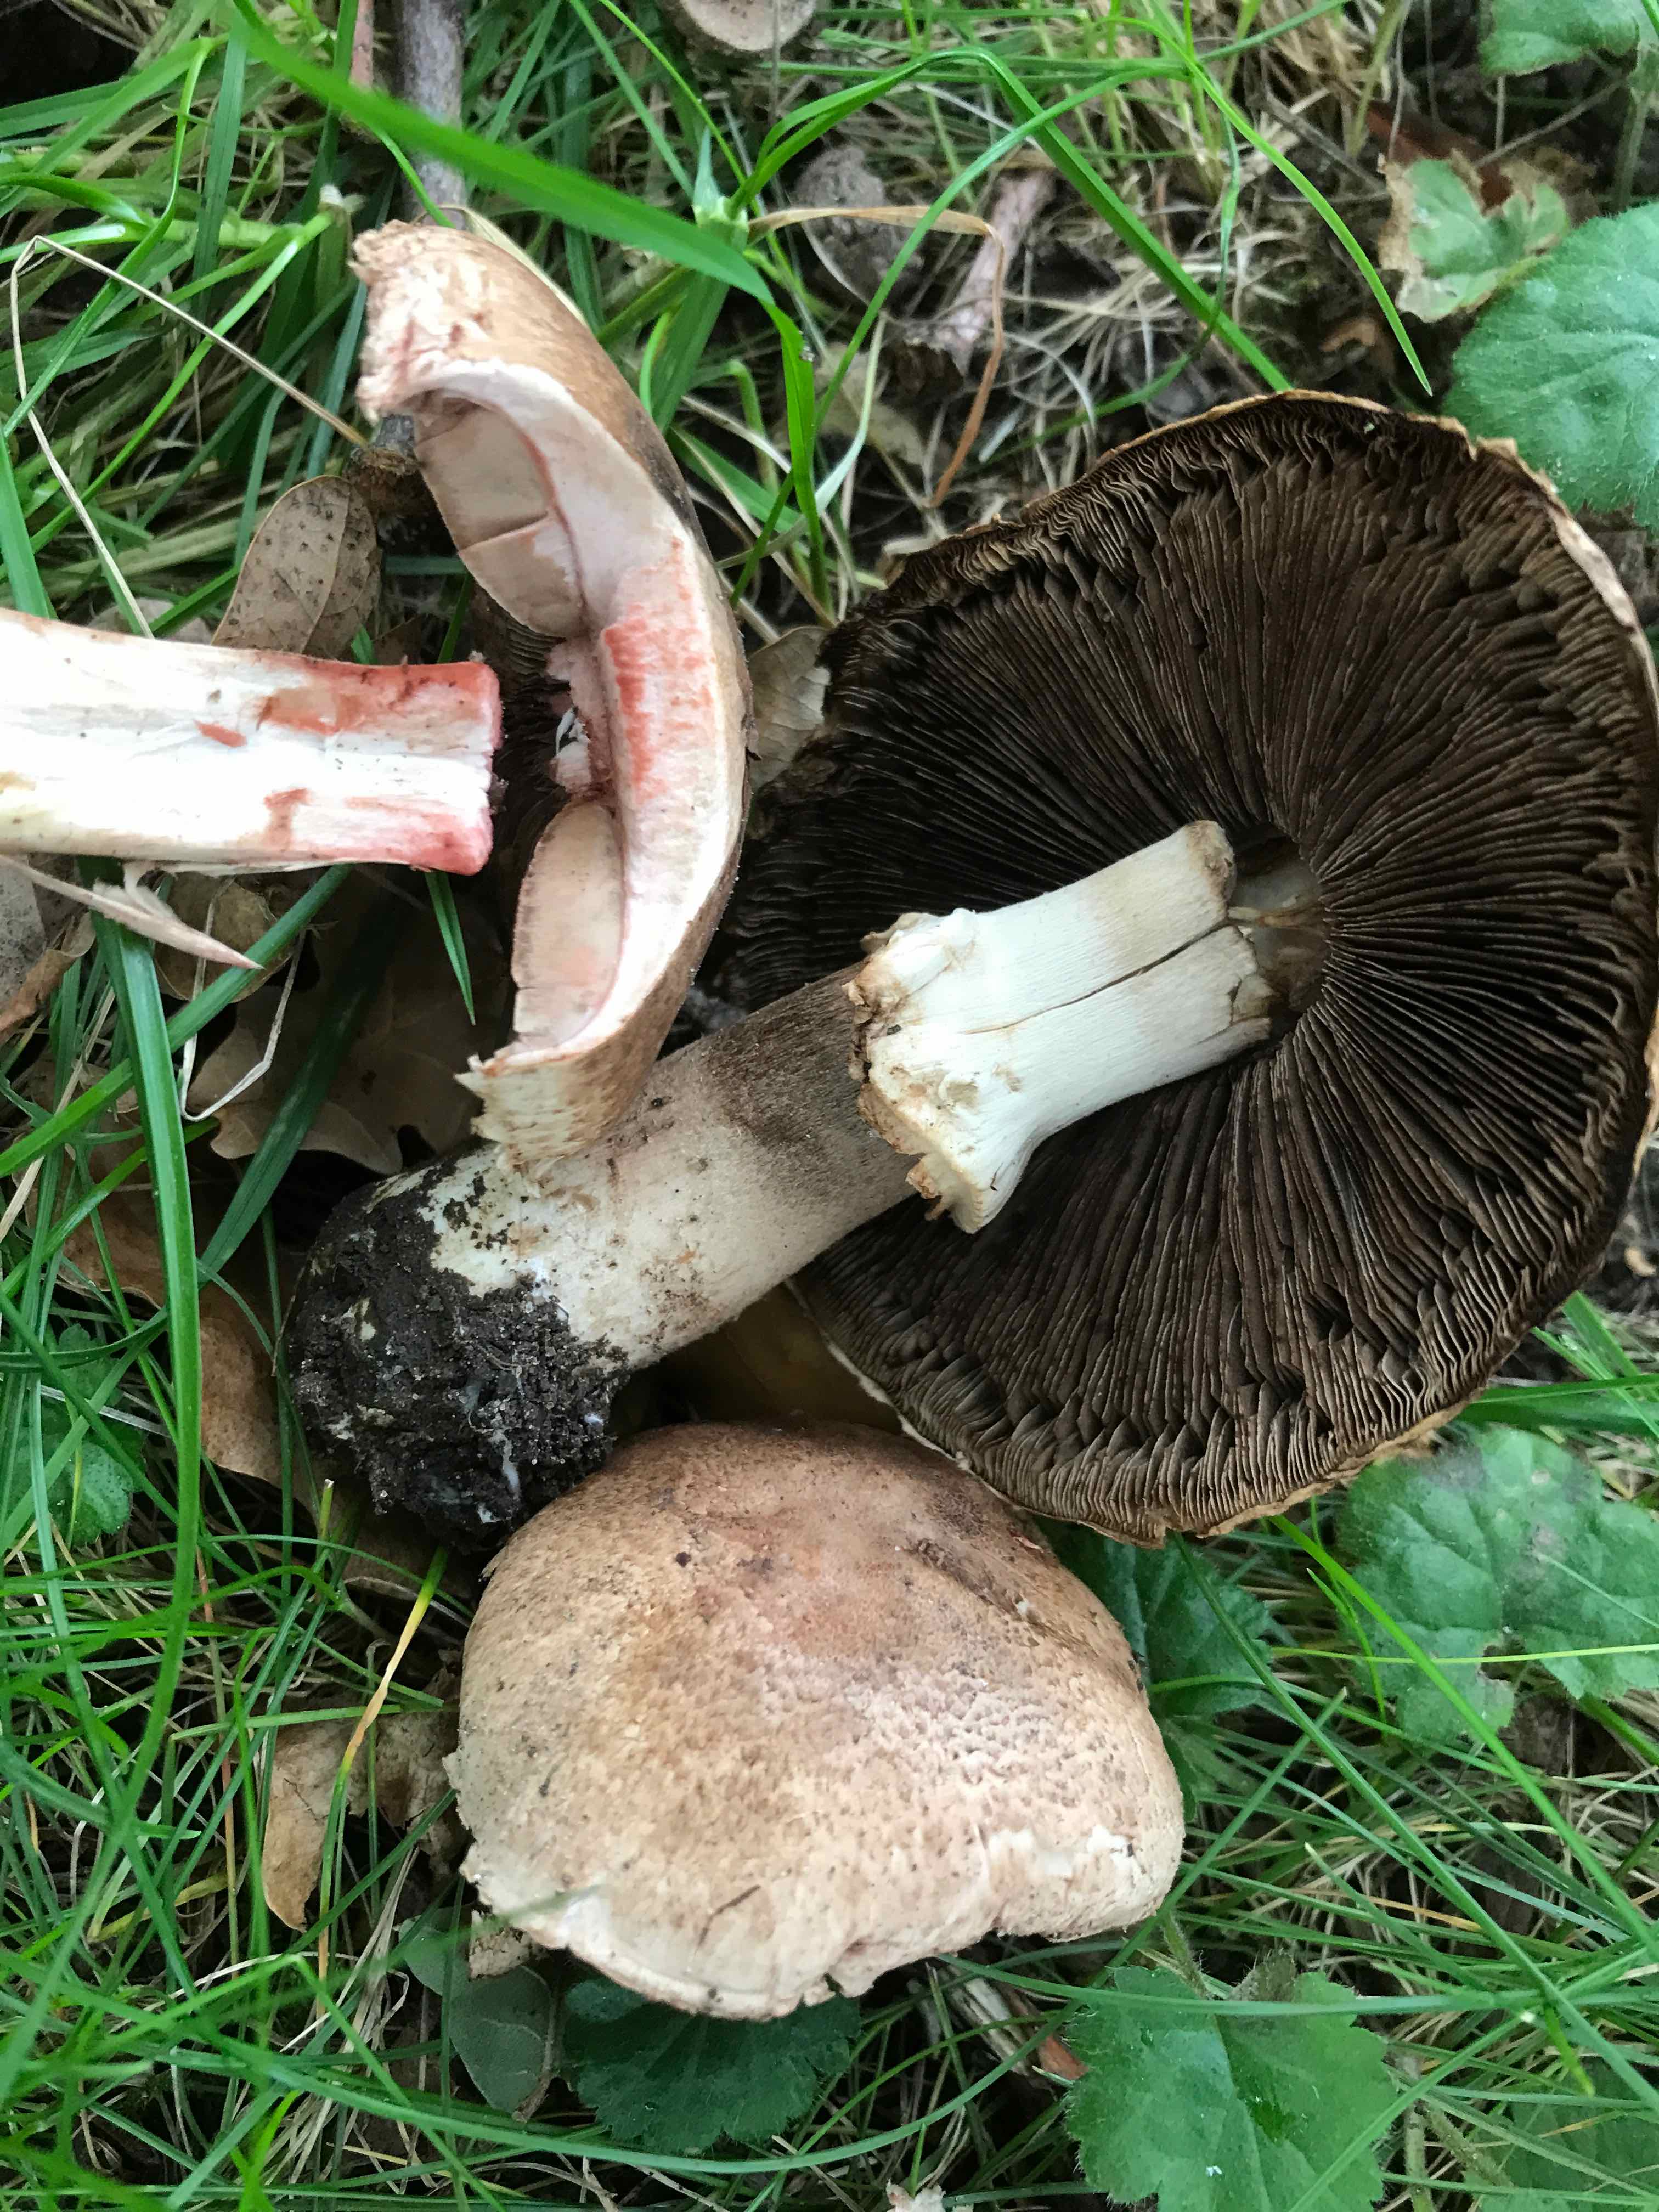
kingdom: Fungi
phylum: Basidiomycota
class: Agaricomycetes
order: Agaricales
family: Agaricaceae
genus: Agaricus
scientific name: Agaricus
